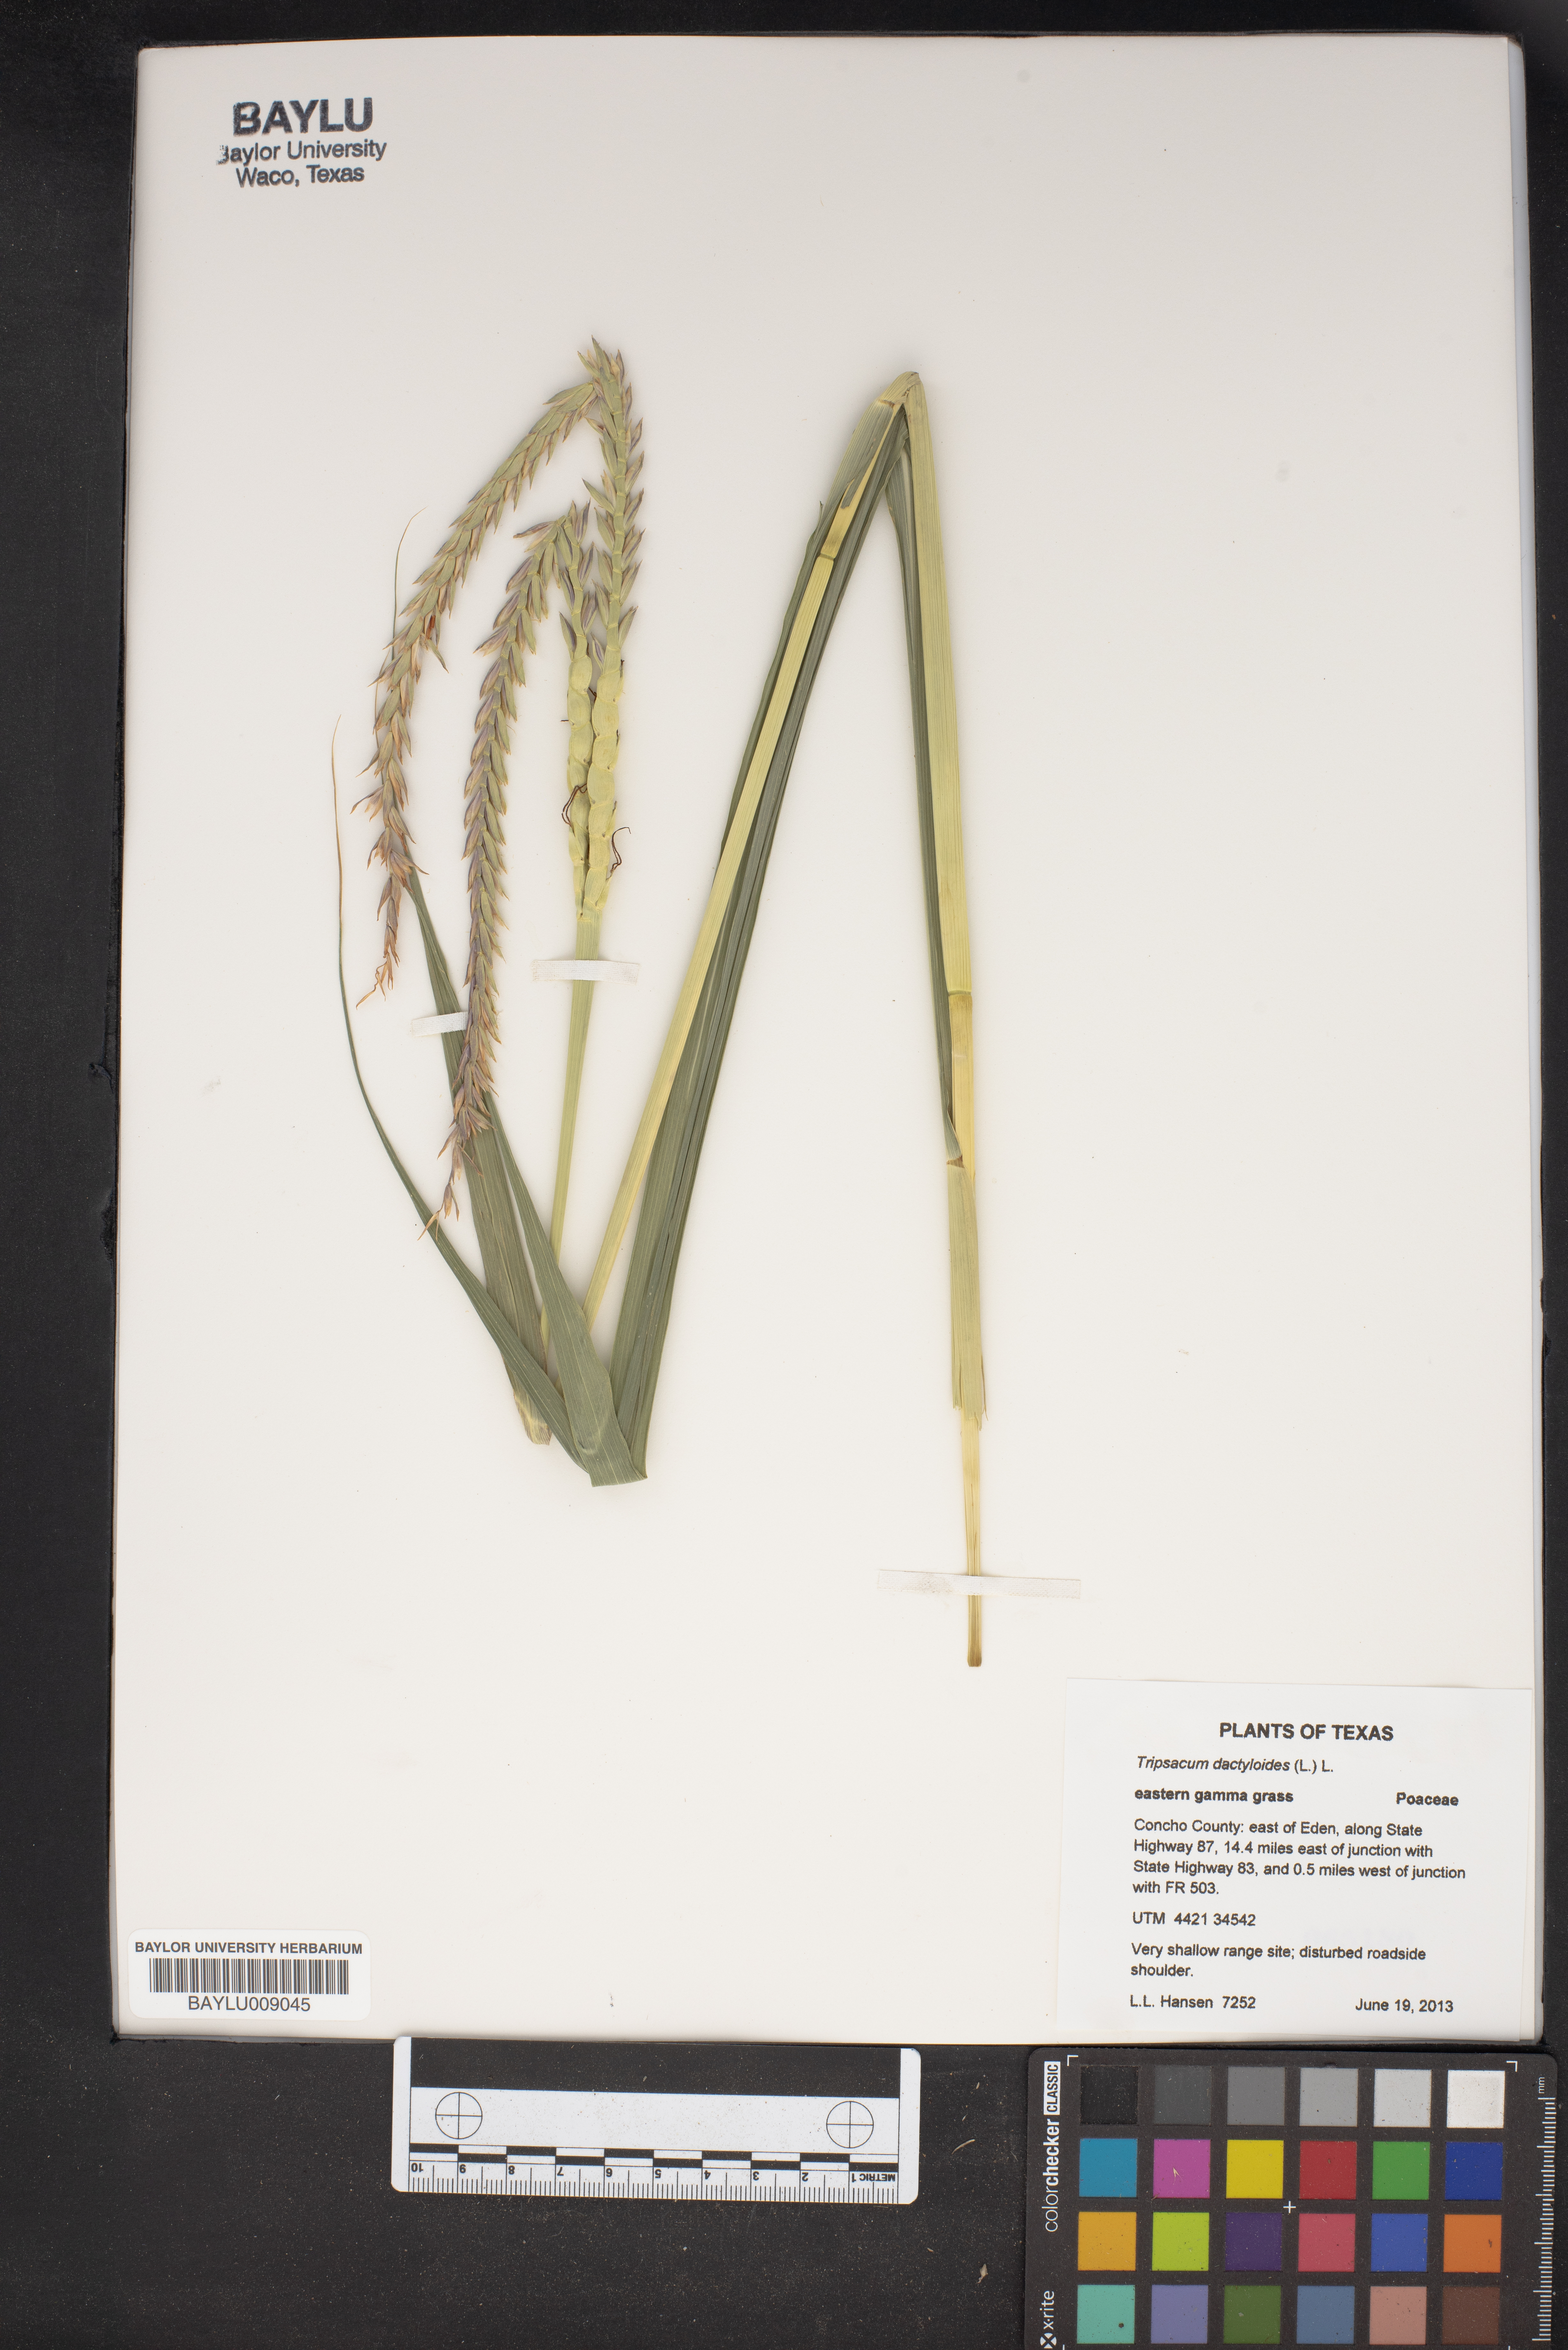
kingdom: Plantae
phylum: Tracheophyta
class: Liliopsida
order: Poales
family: Poaceae
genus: Tripsacum
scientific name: Tripsacum dactyloides
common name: Buffalo-grass
